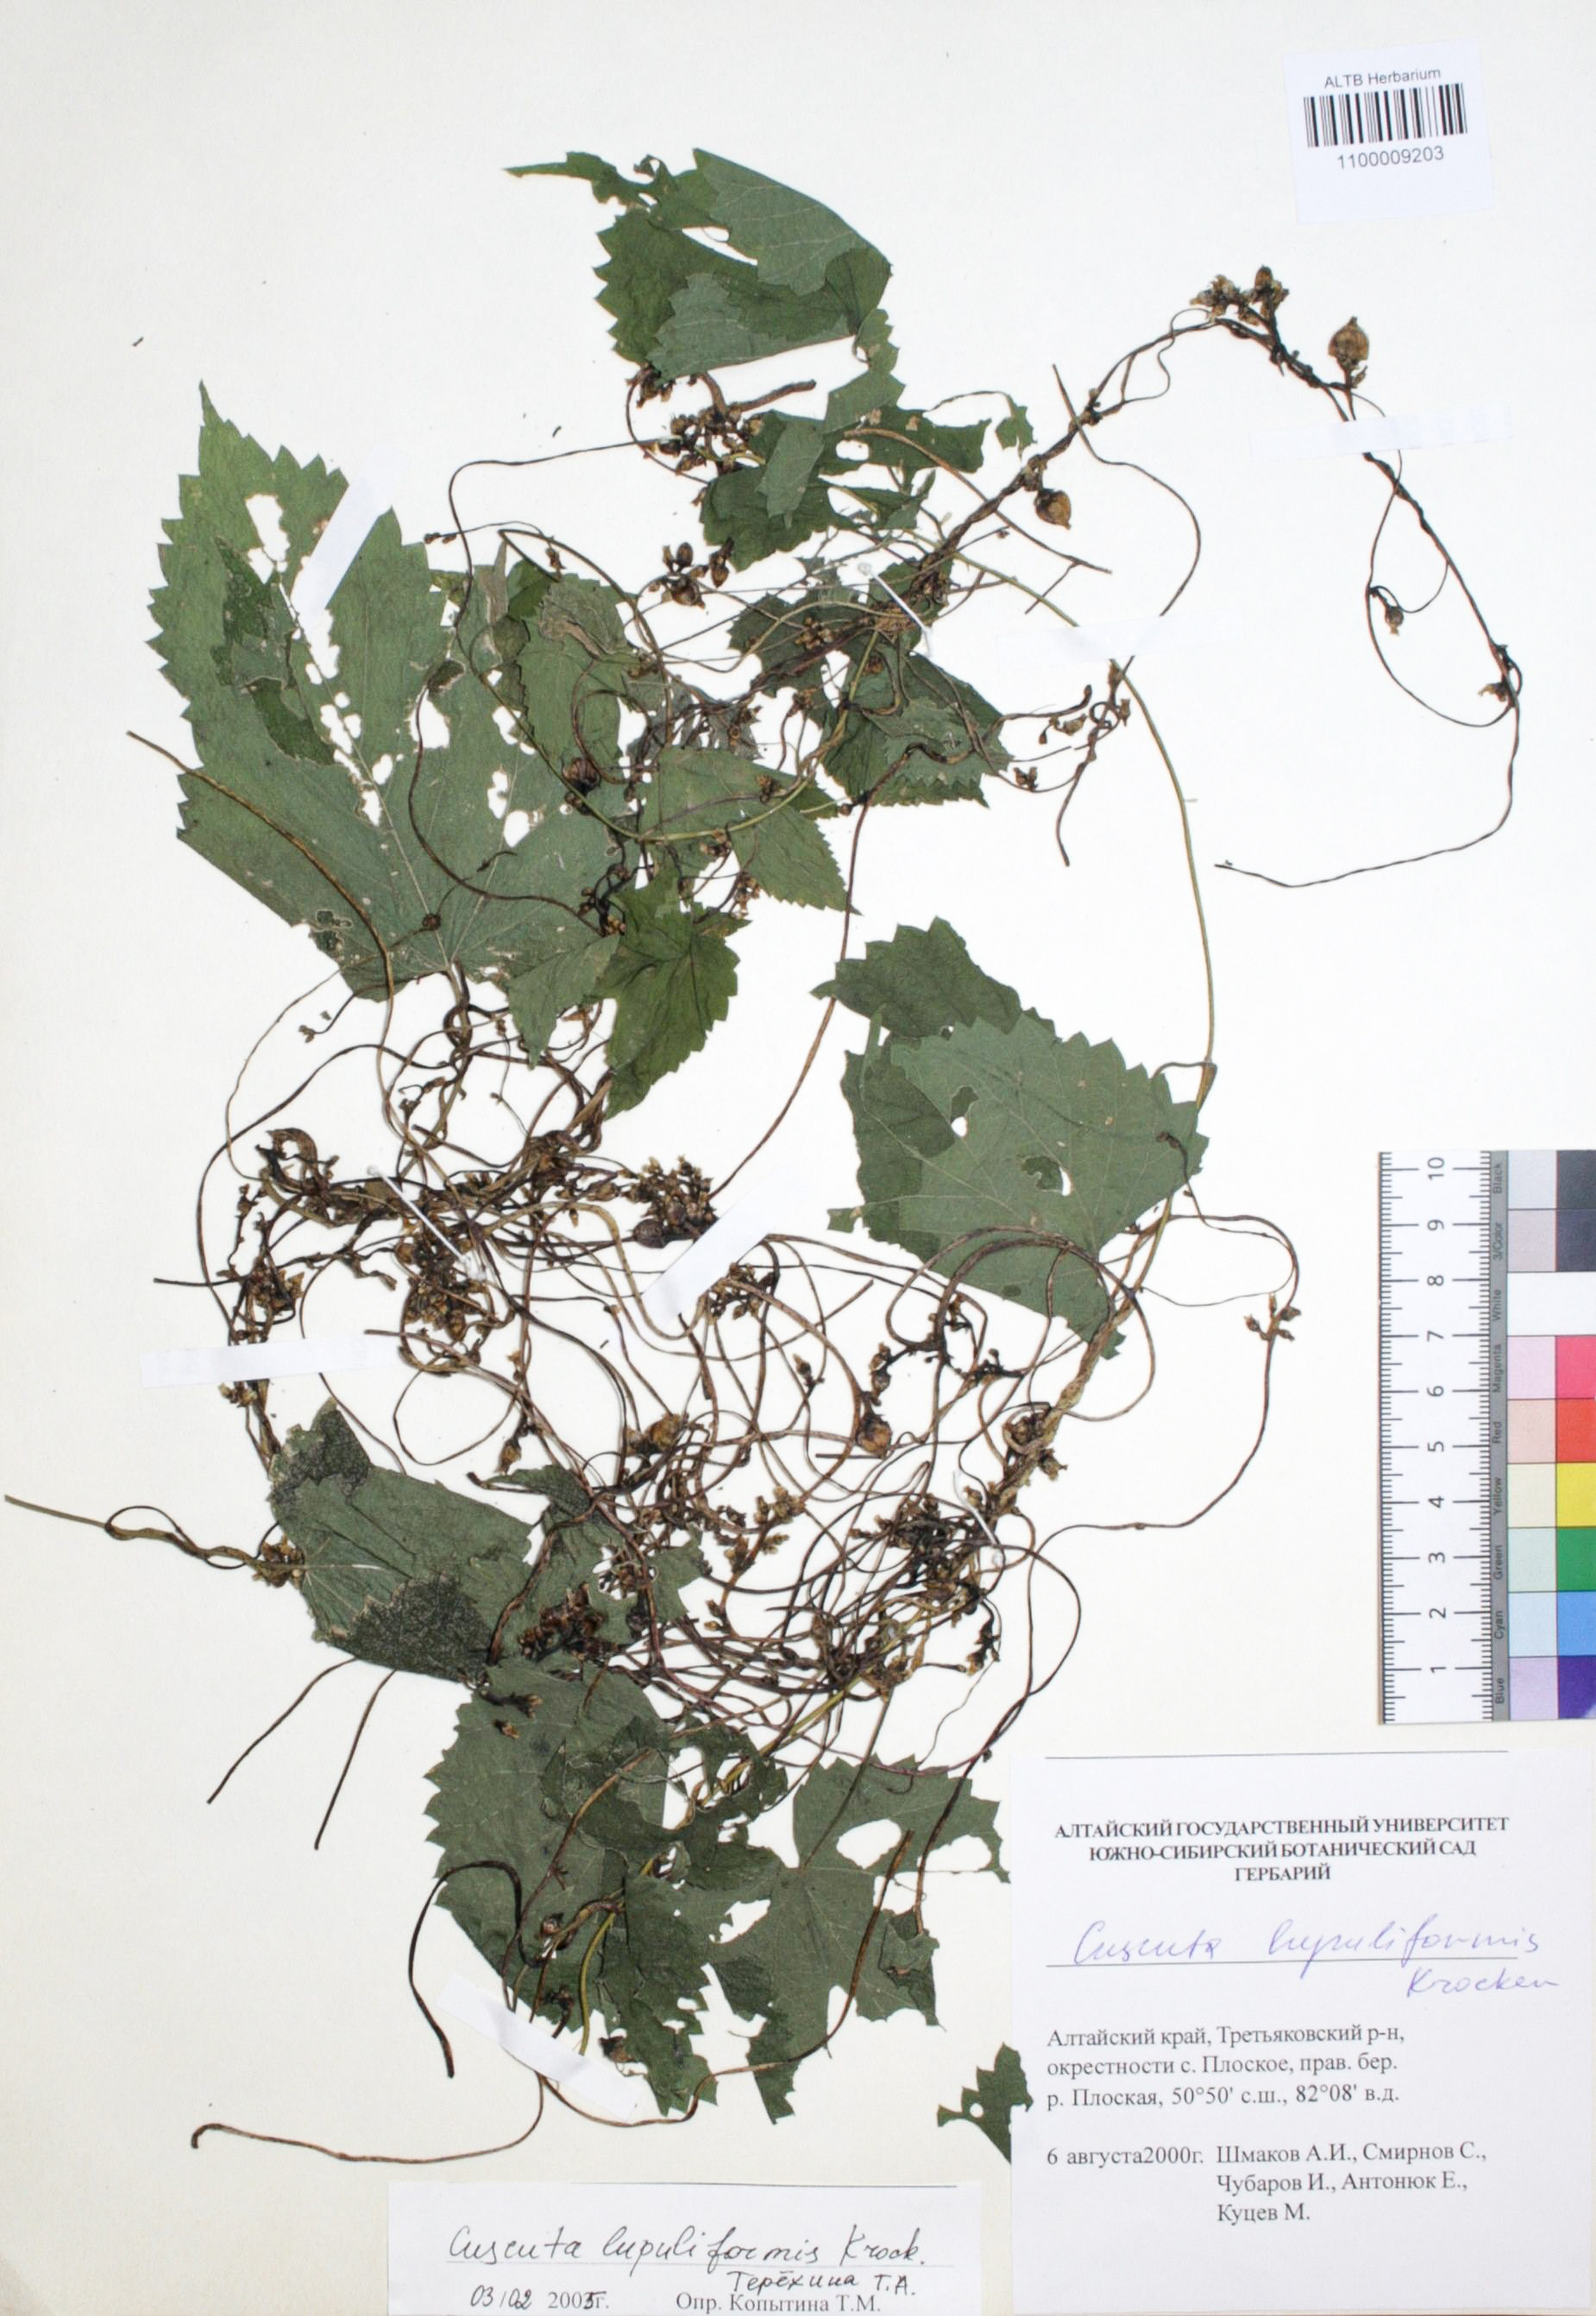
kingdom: Plantae
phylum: Tracheophyta
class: Magnoliopsida
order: Solanales
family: Convolvulaceae
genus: Cuscuta
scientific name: Cuscuta lupuliformis
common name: Hop dodder
